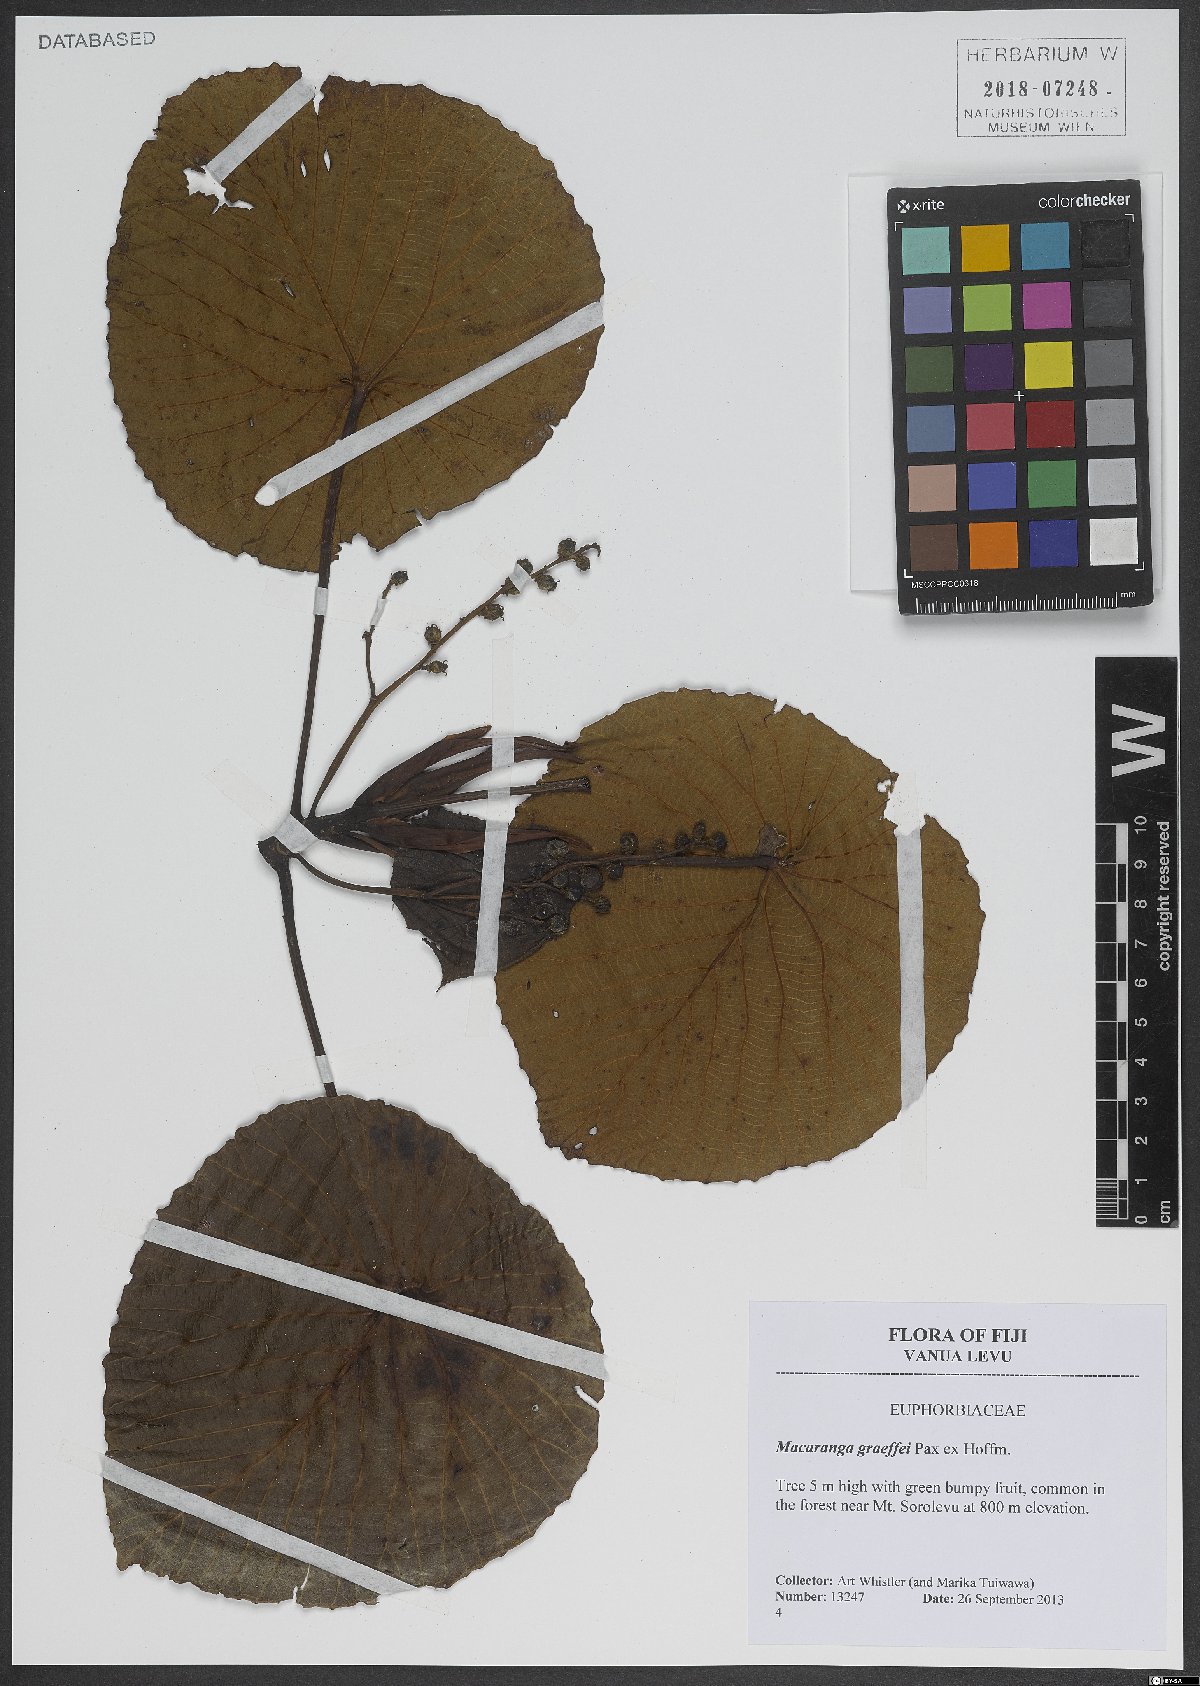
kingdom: Plantae
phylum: Tracheophyta
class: Magnoliopsida
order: Malpighiales
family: Euphorbiaceae
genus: Macaranga
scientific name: Macaranga graeffeana
